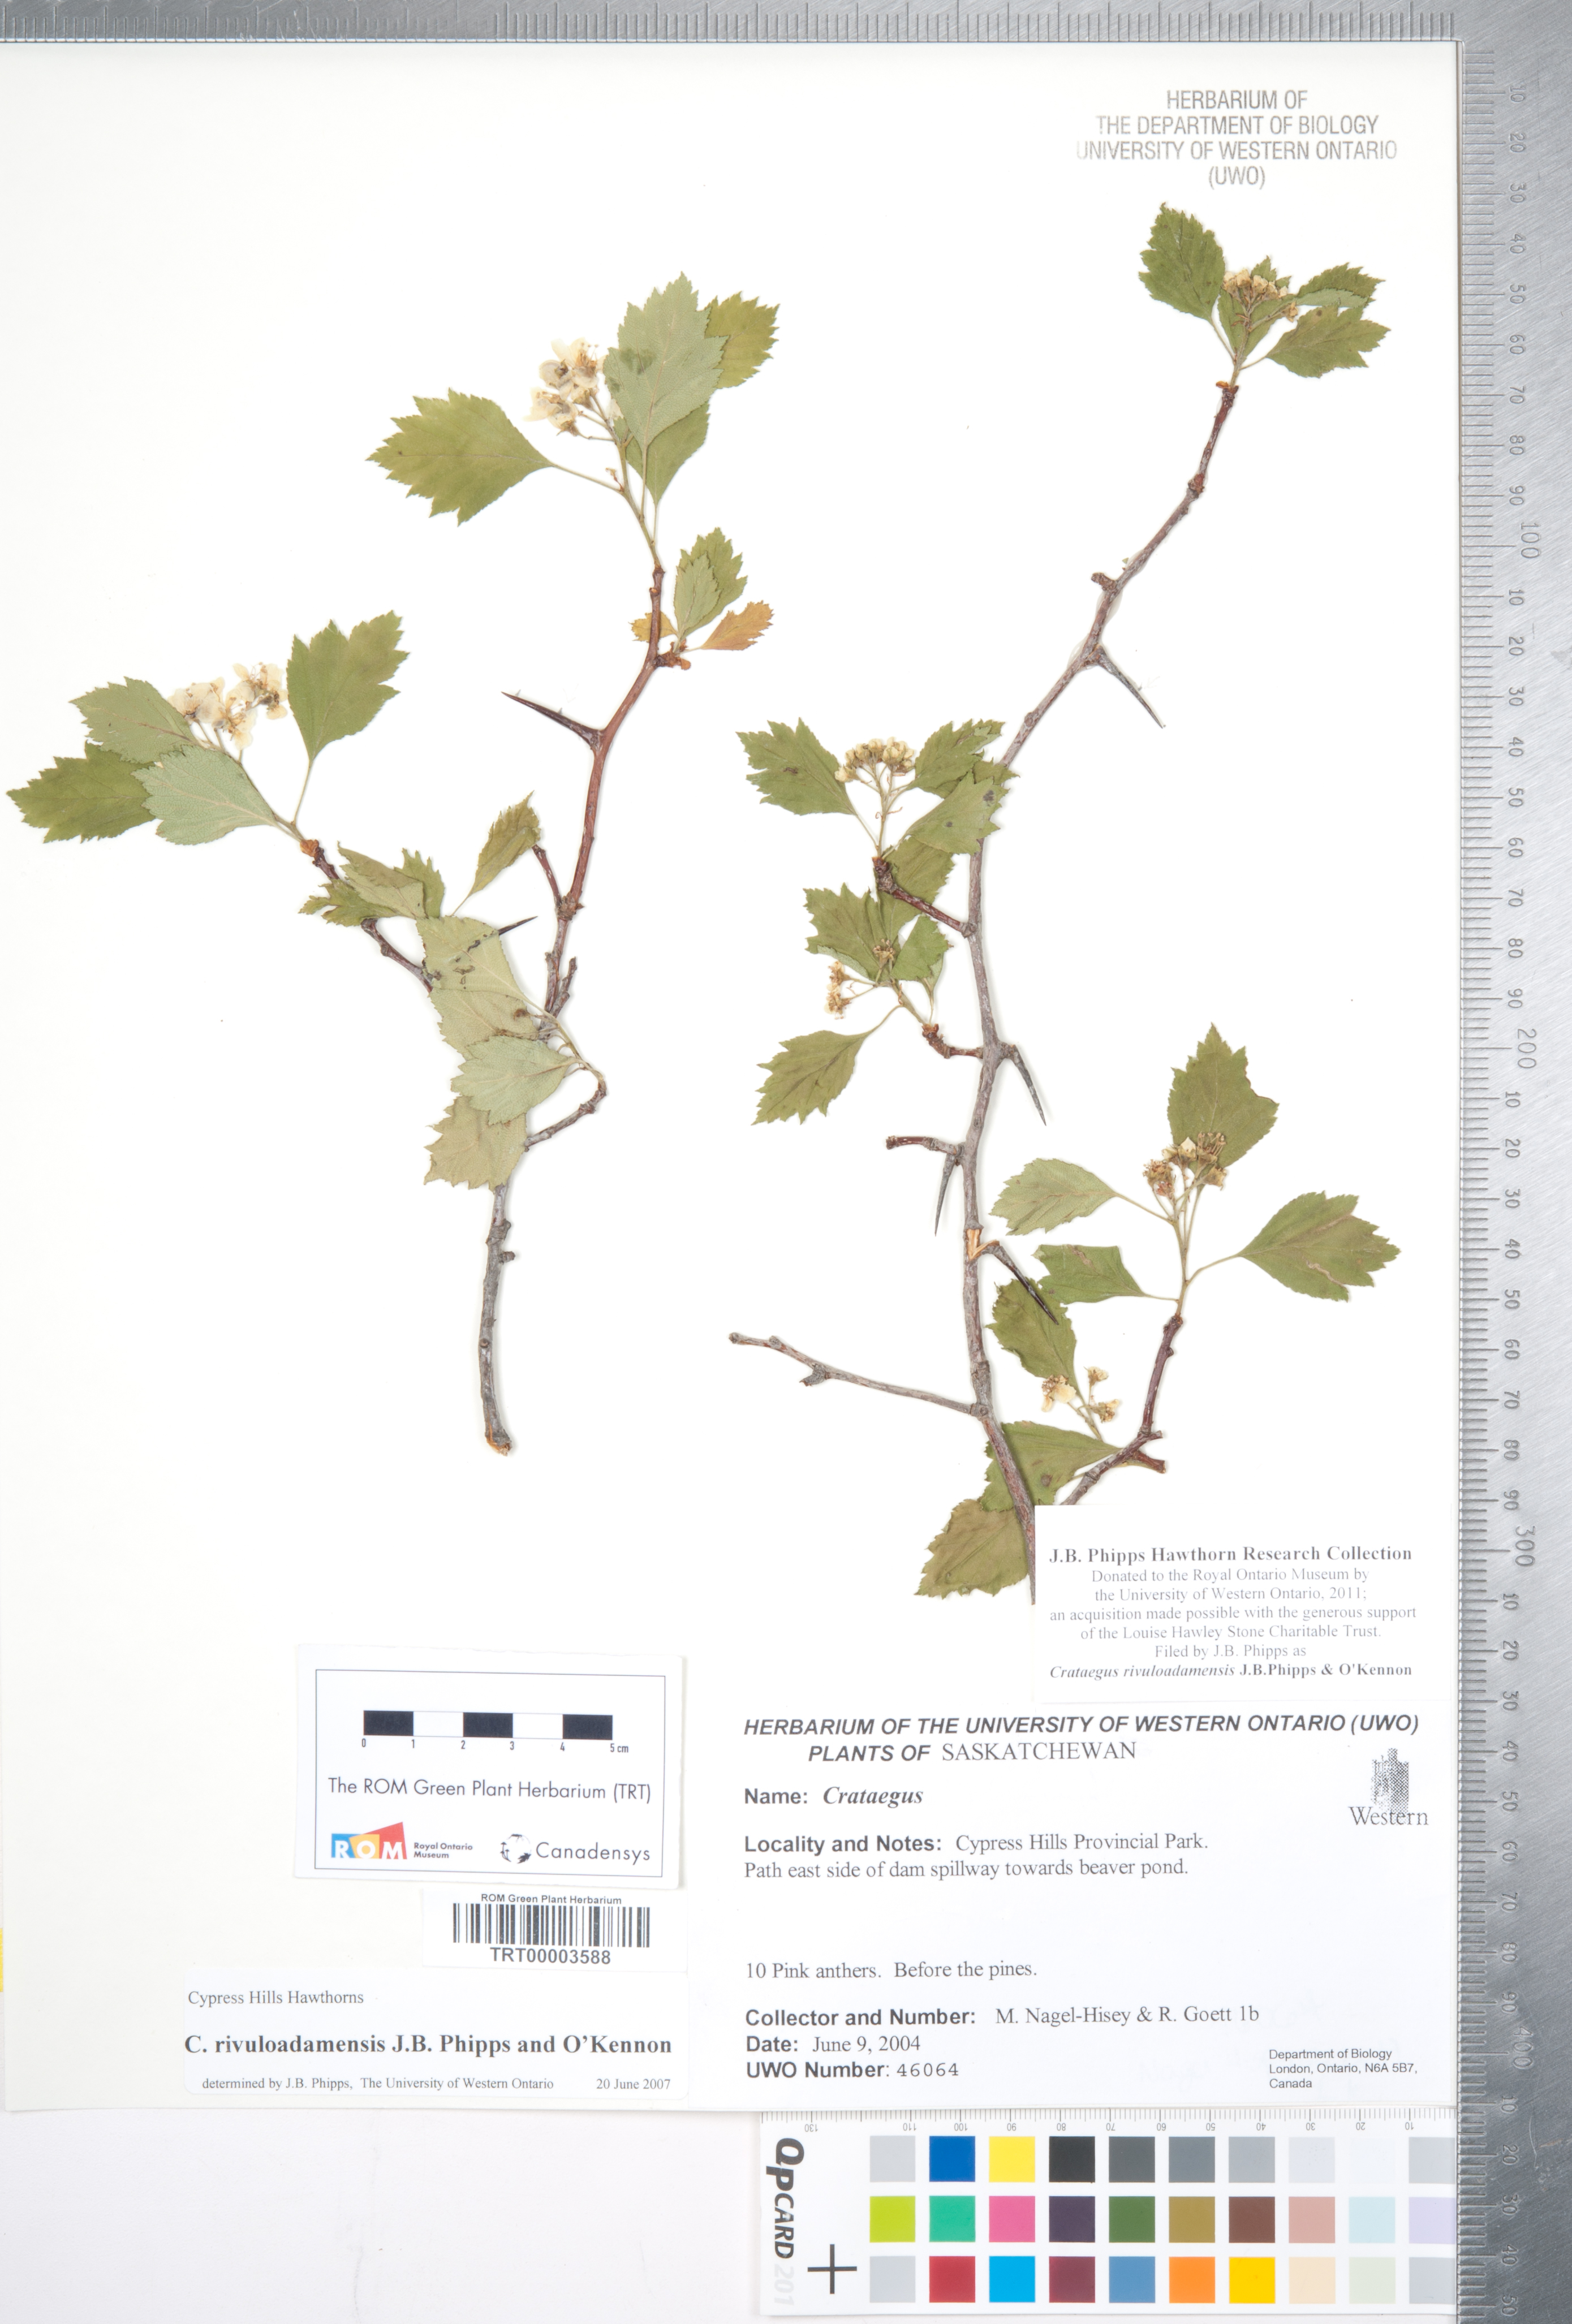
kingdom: Plantae
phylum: Tracheophyta
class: Magnoliopsida
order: Rosales
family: Rosaceae
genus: Crataegus
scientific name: Crataegus rivuloadamensis
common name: Adams creek hawthorn
